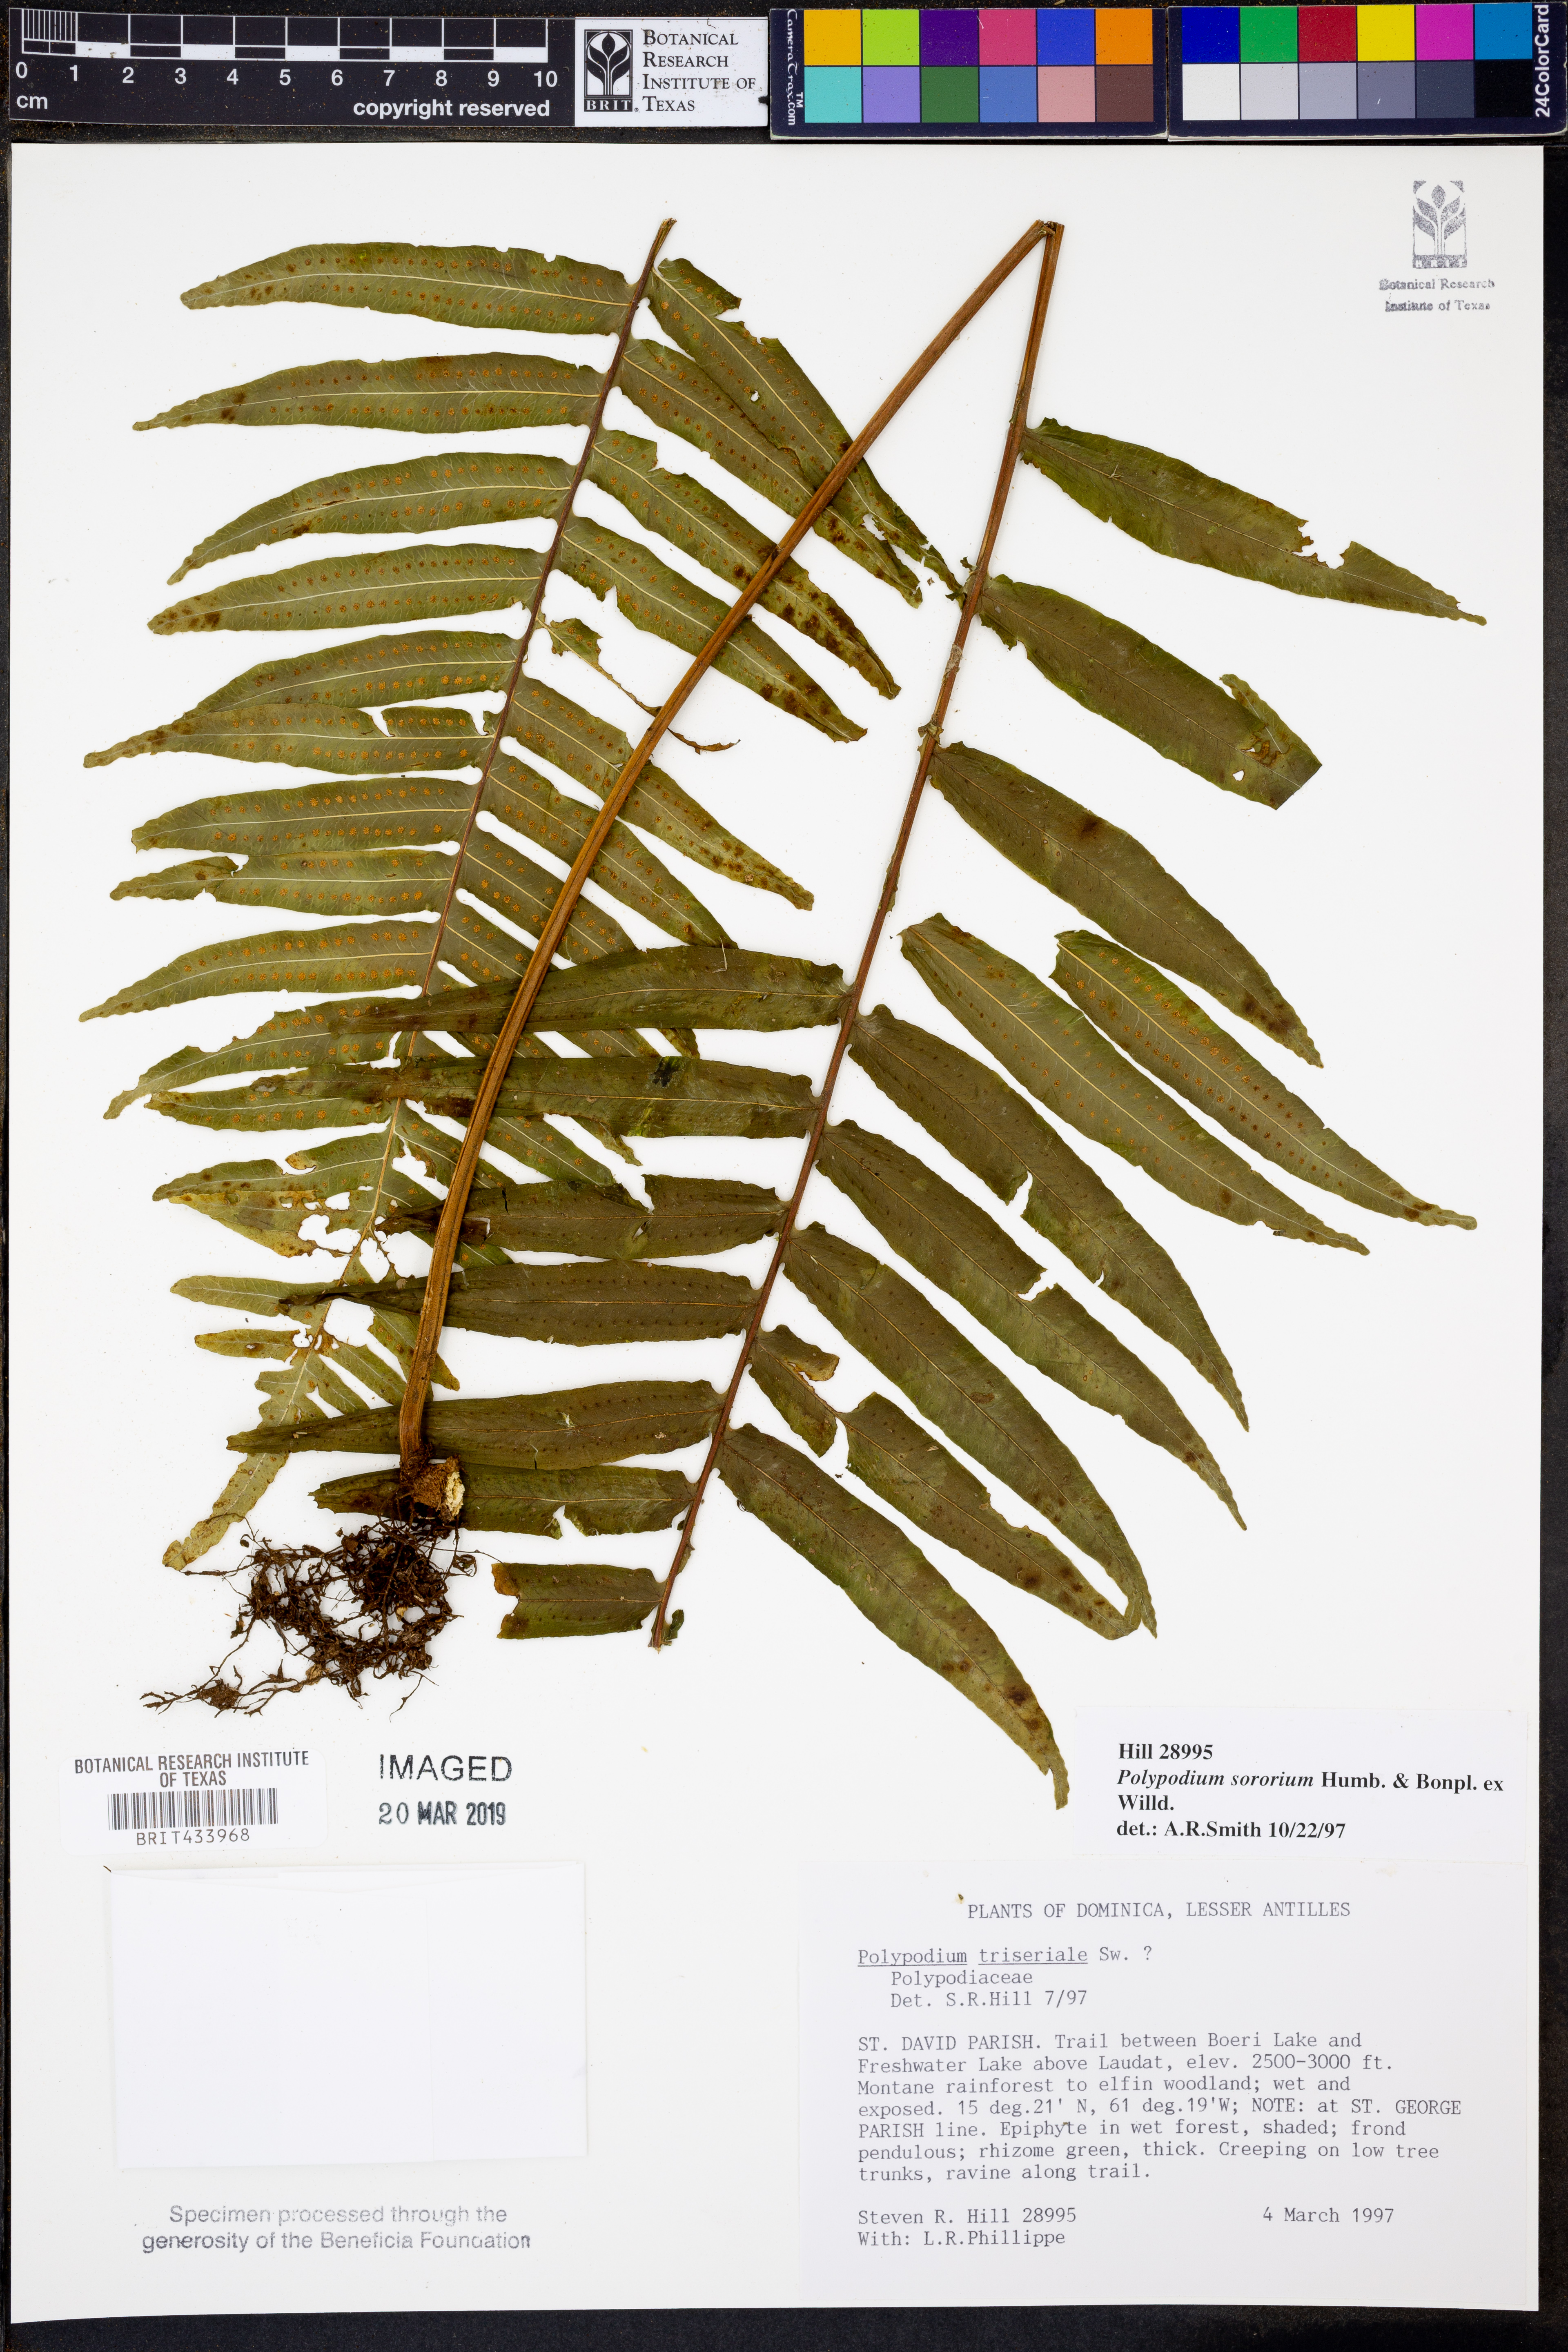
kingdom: Plantae
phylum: Tracheophyta
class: Polypodiopsida
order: Polypodiales
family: Polypodiaceae
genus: Pecluma
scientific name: Pecluma dulcis
